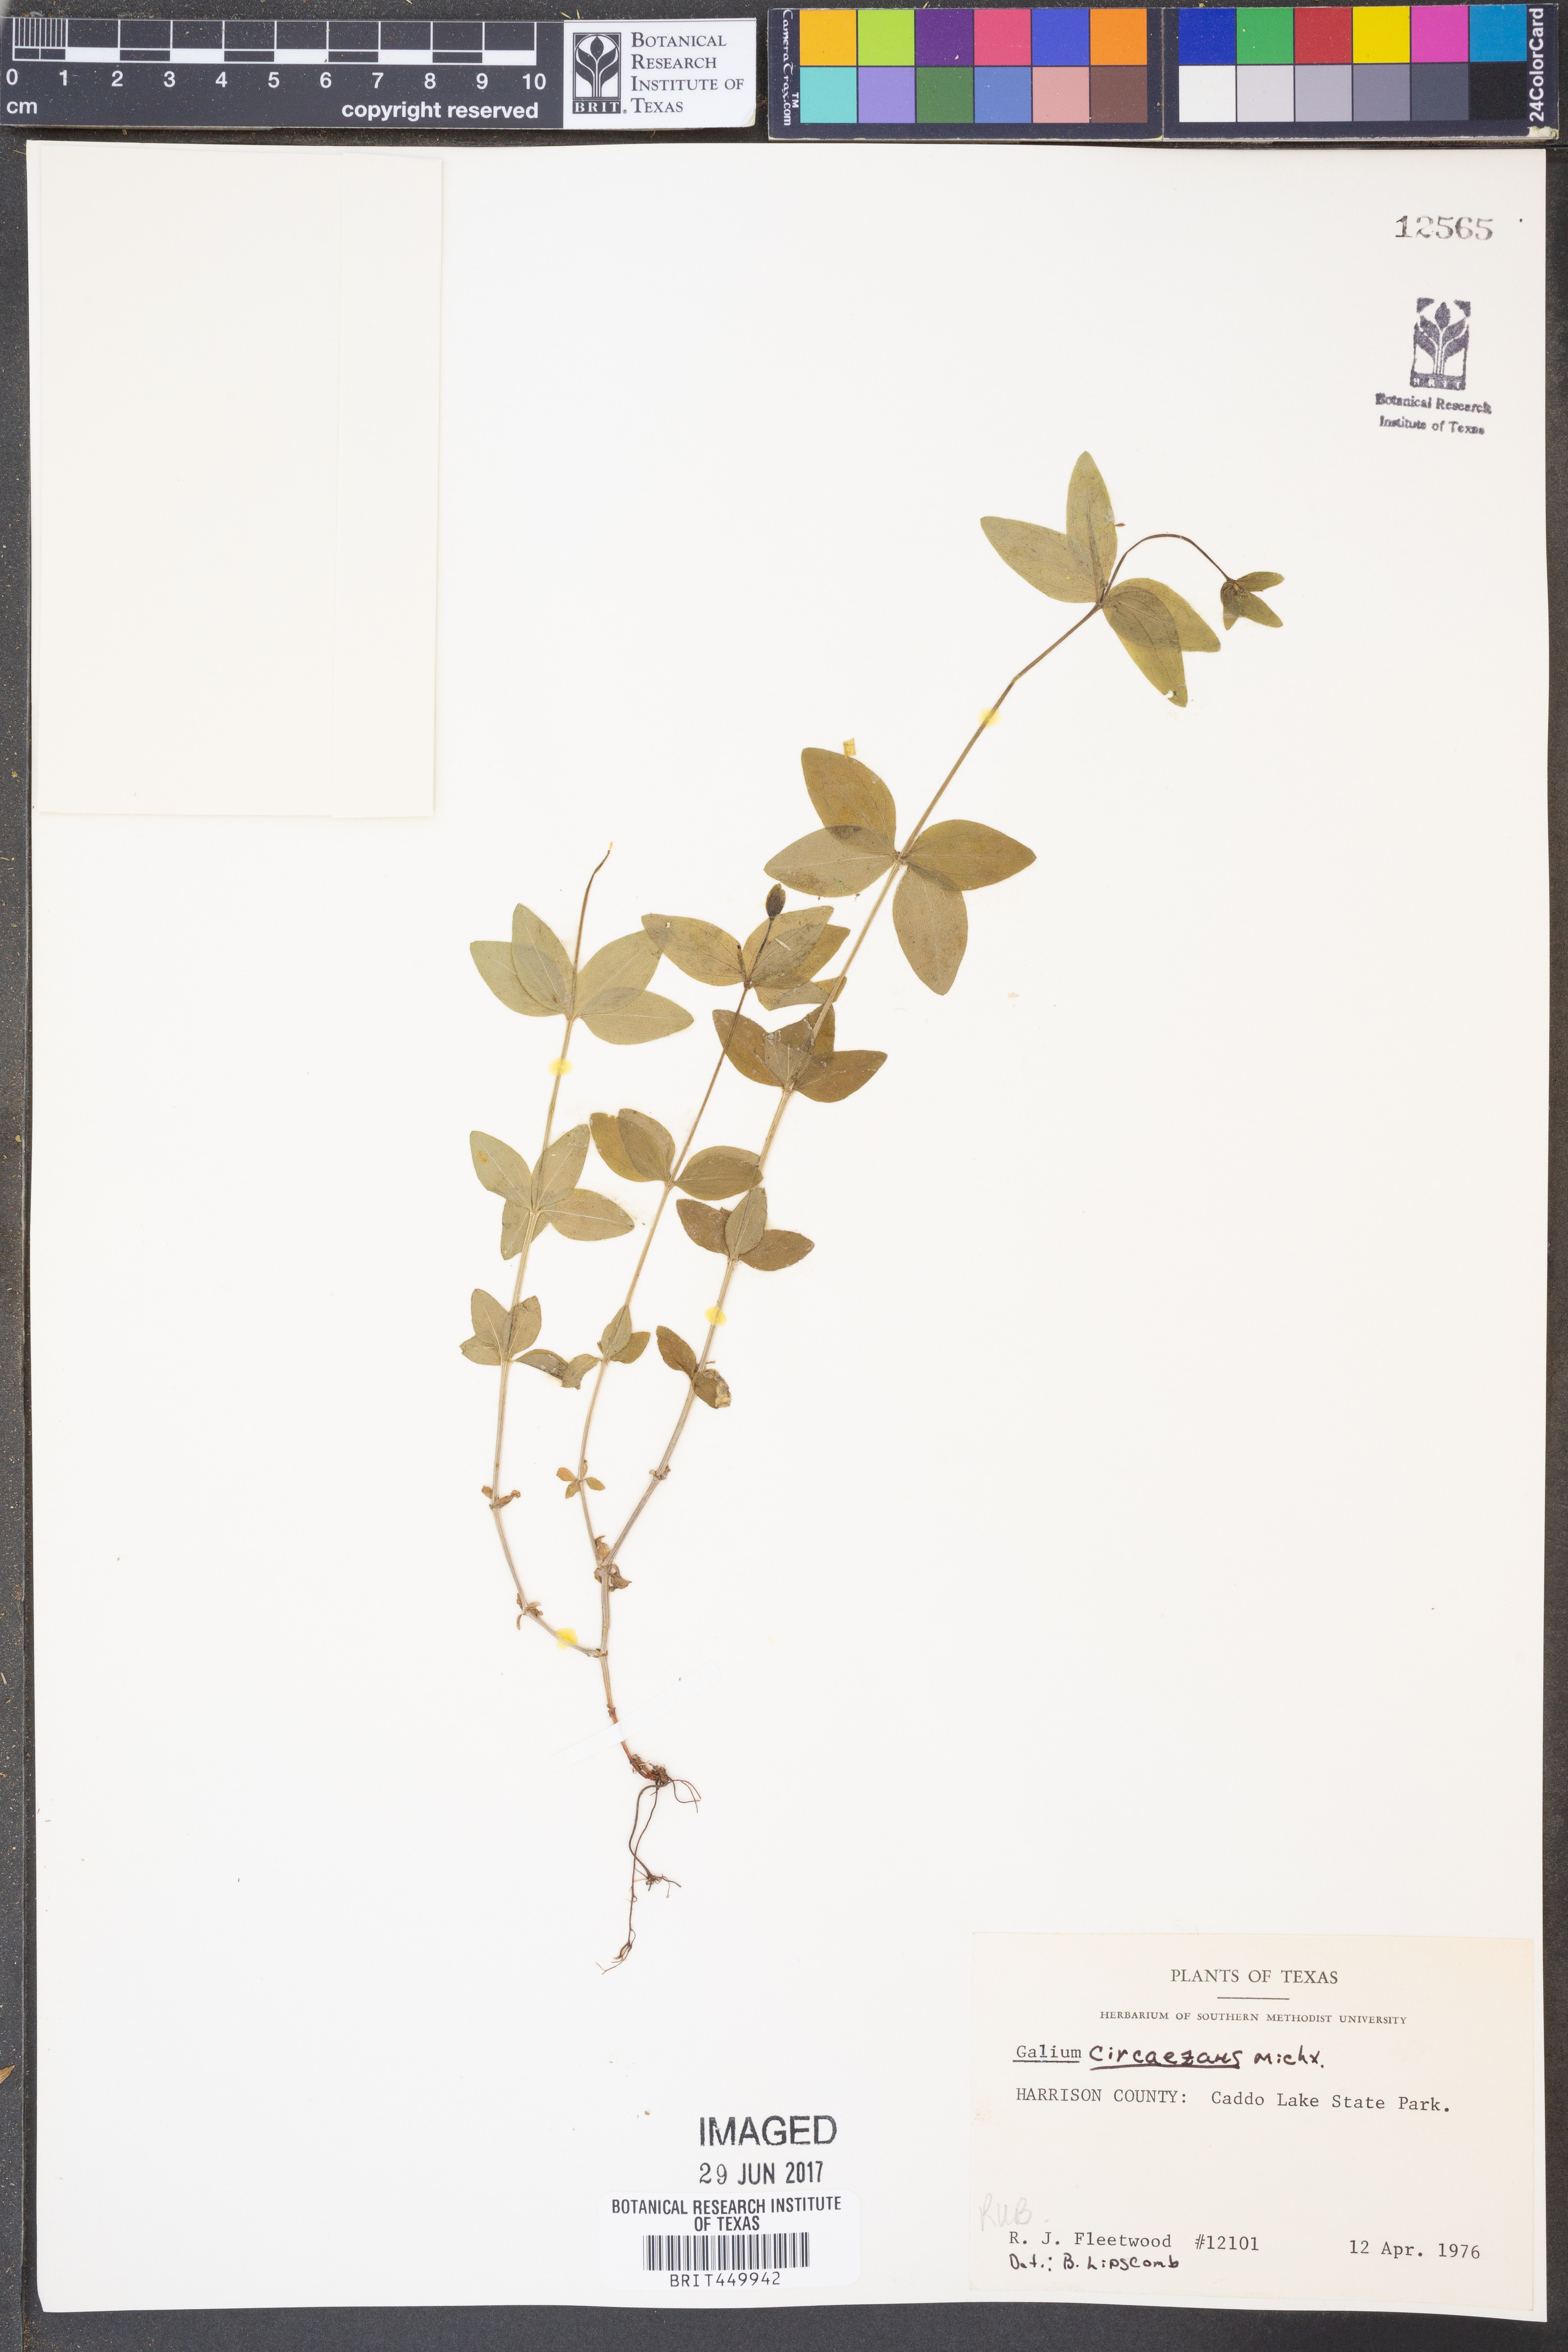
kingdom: Plantae
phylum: Tracheophyta
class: Magnoliopsida
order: Gentianales
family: Rubiaceae
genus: Galium
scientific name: Galium circaezans
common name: Forest bedstraw
